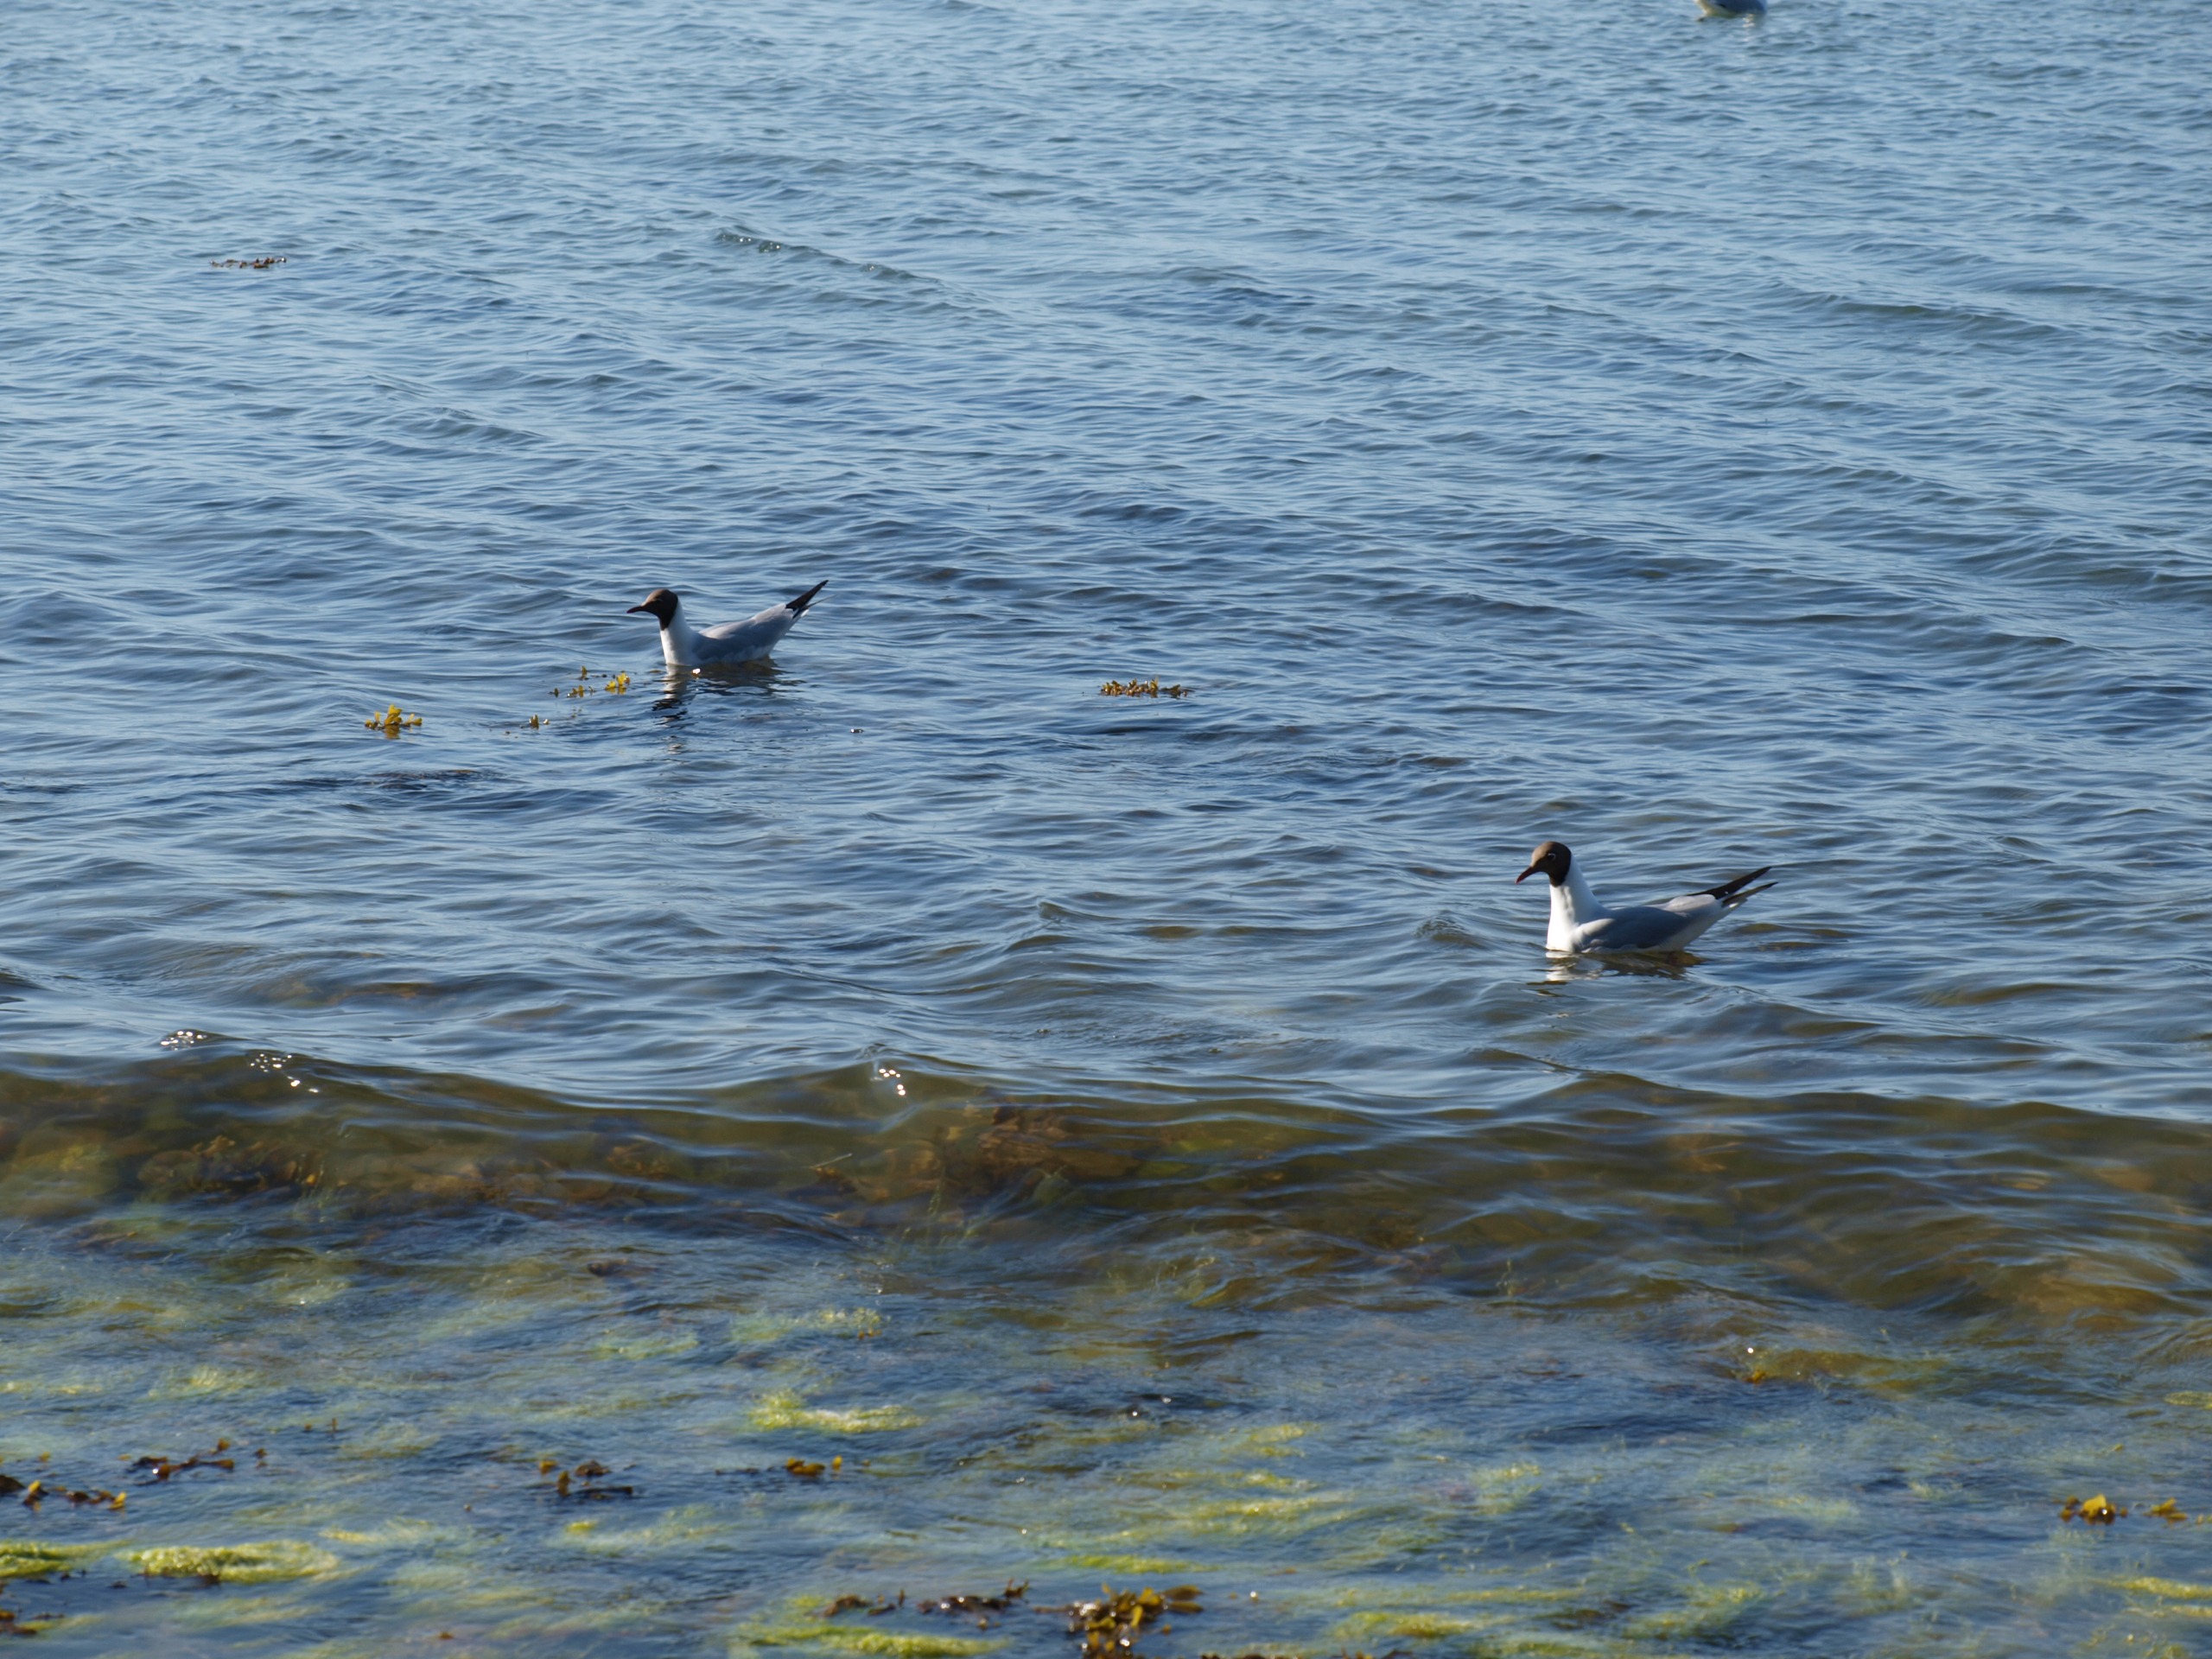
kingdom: Animalia
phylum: Chordata
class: Aves
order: Charadriiformes
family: Laridae
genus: Chroicocephalus
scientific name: Chroicocephalus ridibundus
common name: Hættemåge
